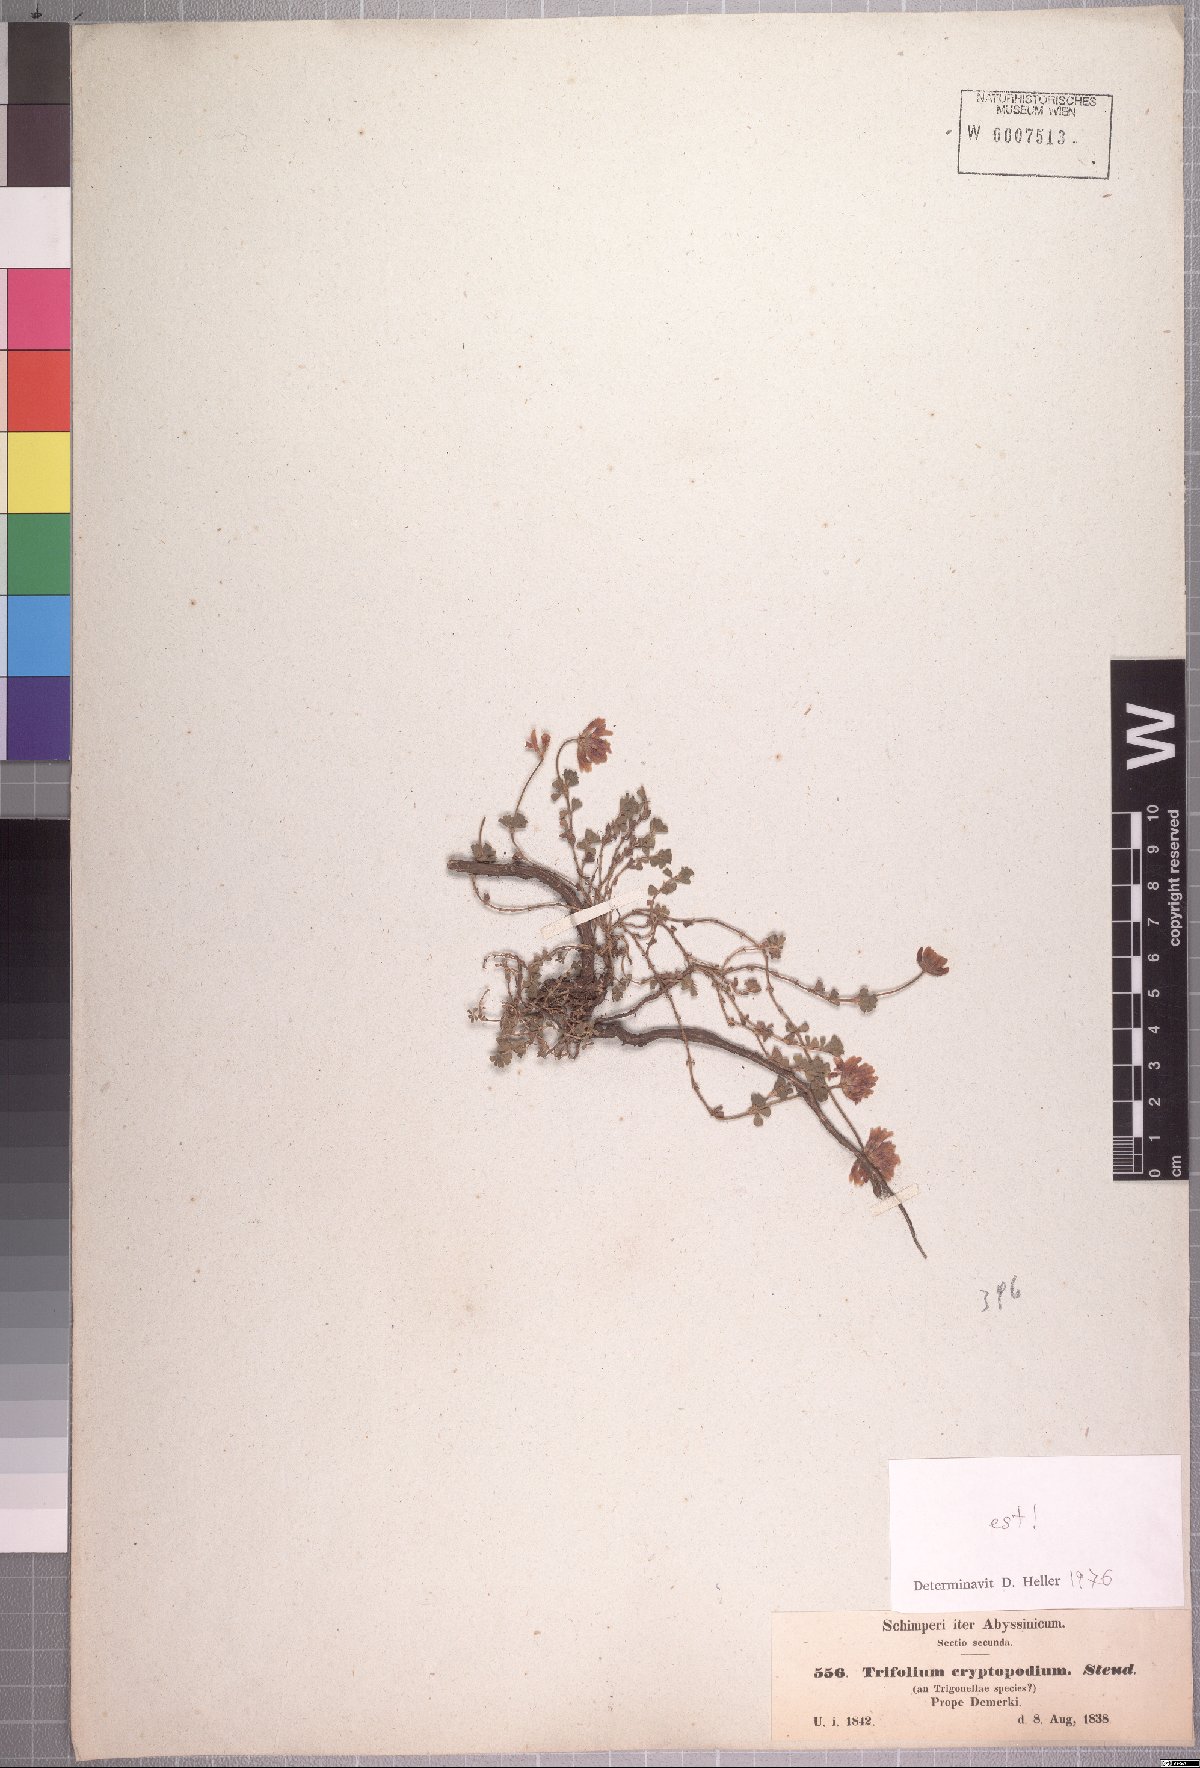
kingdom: Plantae
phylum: Tracheophyta
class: Magnoliopsida
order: Fabales
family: Fabaceae
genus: Trifolium
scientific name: Trifolium cryptopodium
